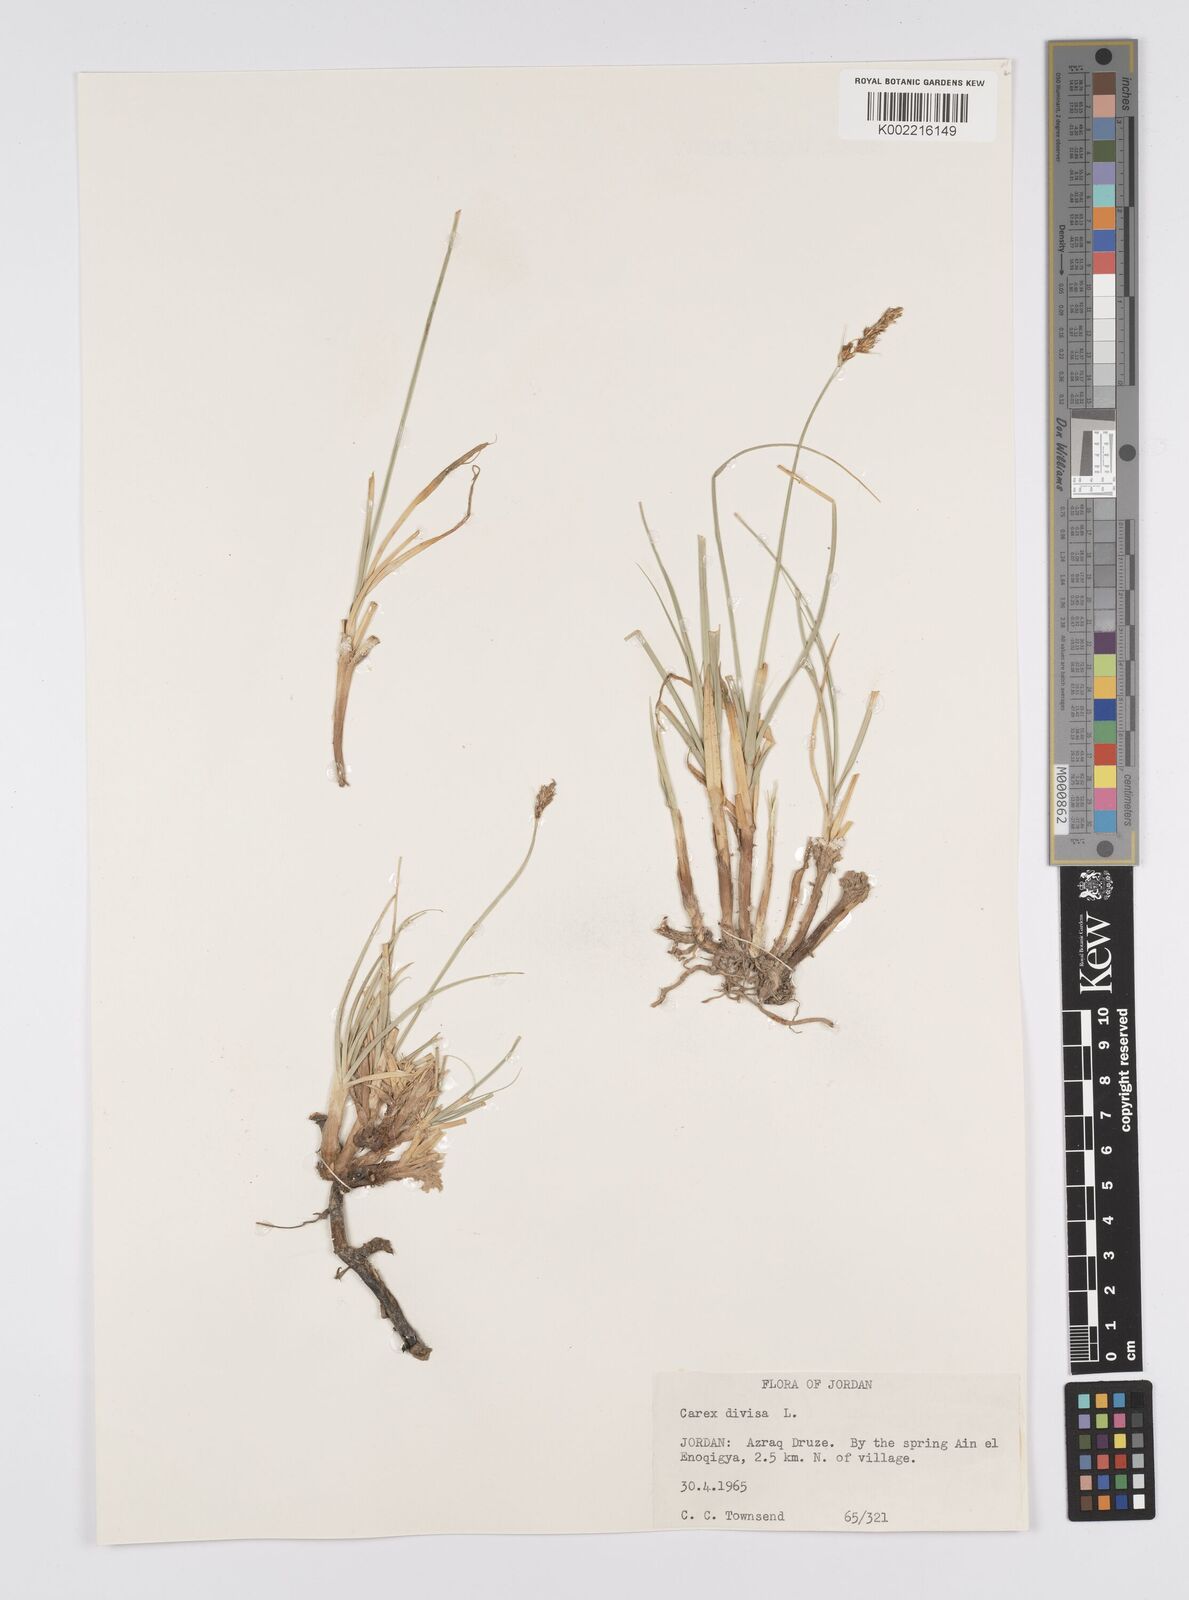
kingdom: Plantae
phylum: Tracheophyta
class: Liliopsida
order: Poales
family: Cyperaceae
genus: Carex
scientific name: Carex divisa
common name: Divided sedge
